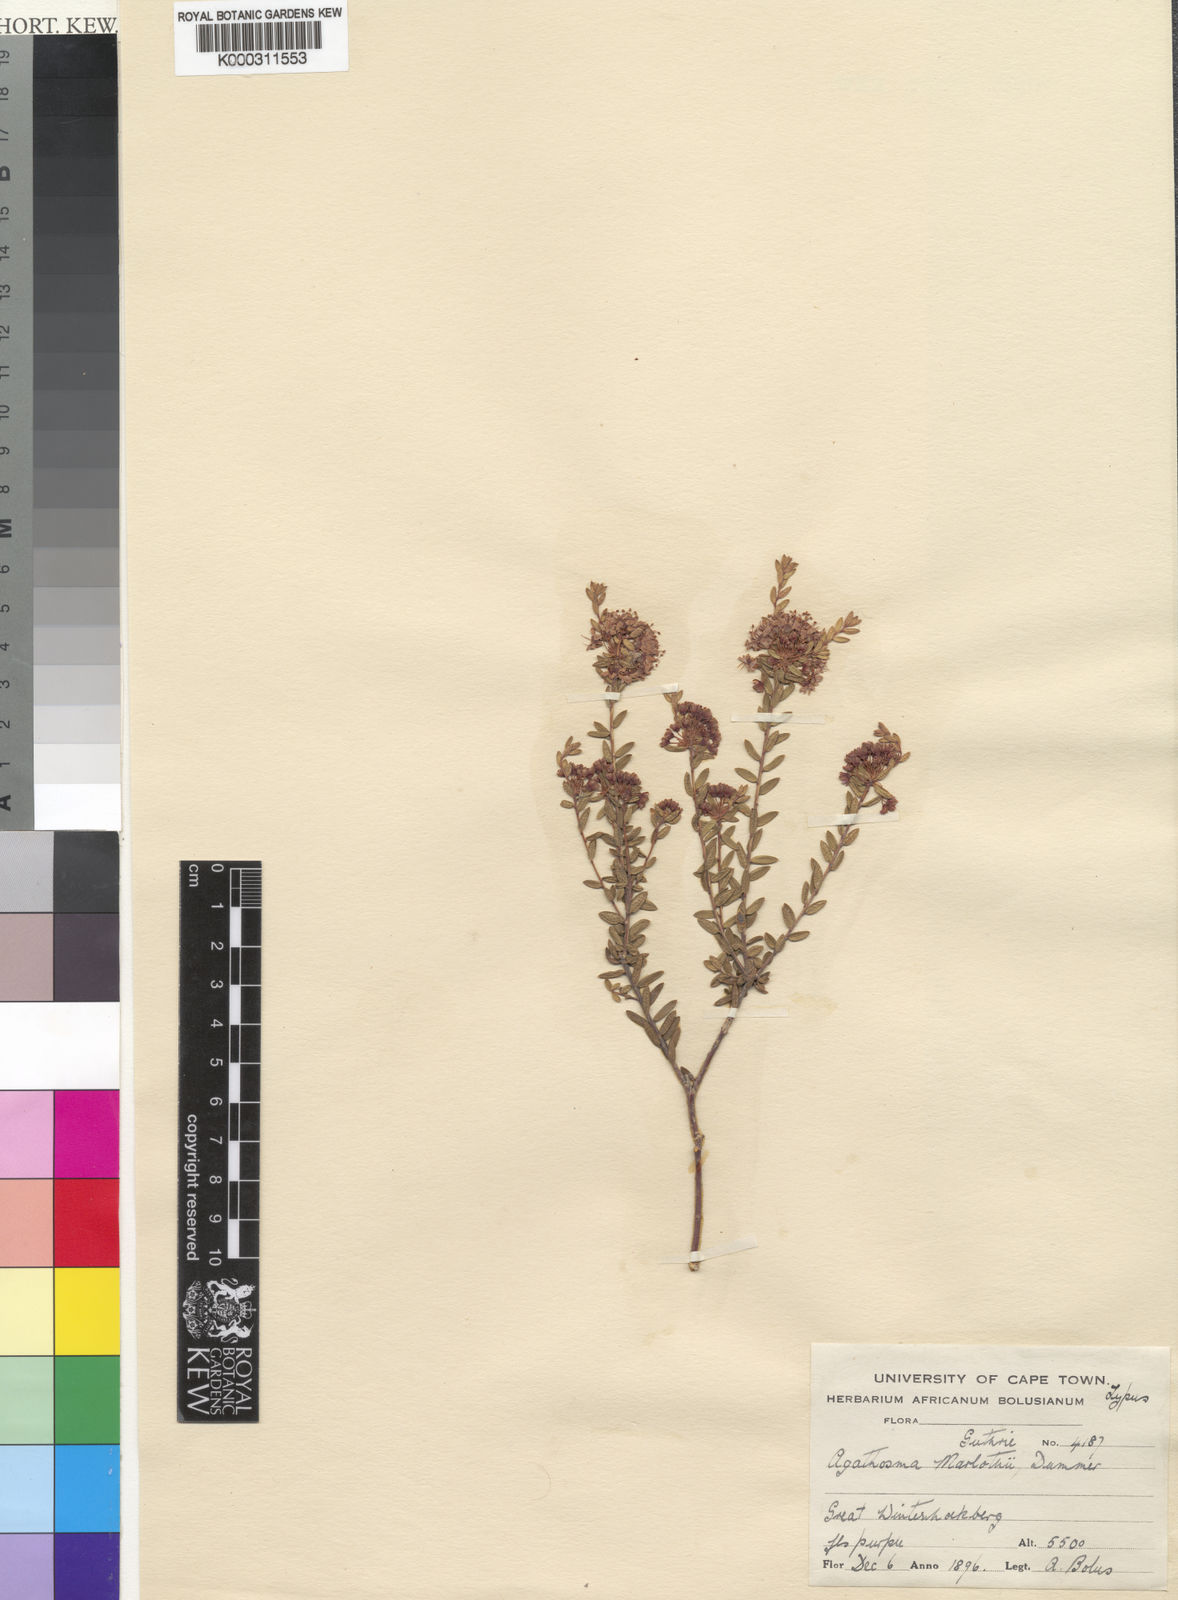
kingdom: Plantae
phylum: Tracheophyta
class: Magnoliopsida
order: Sapindales
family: Rutaceae
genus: Agathosma
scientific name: Agathosma marlothii
